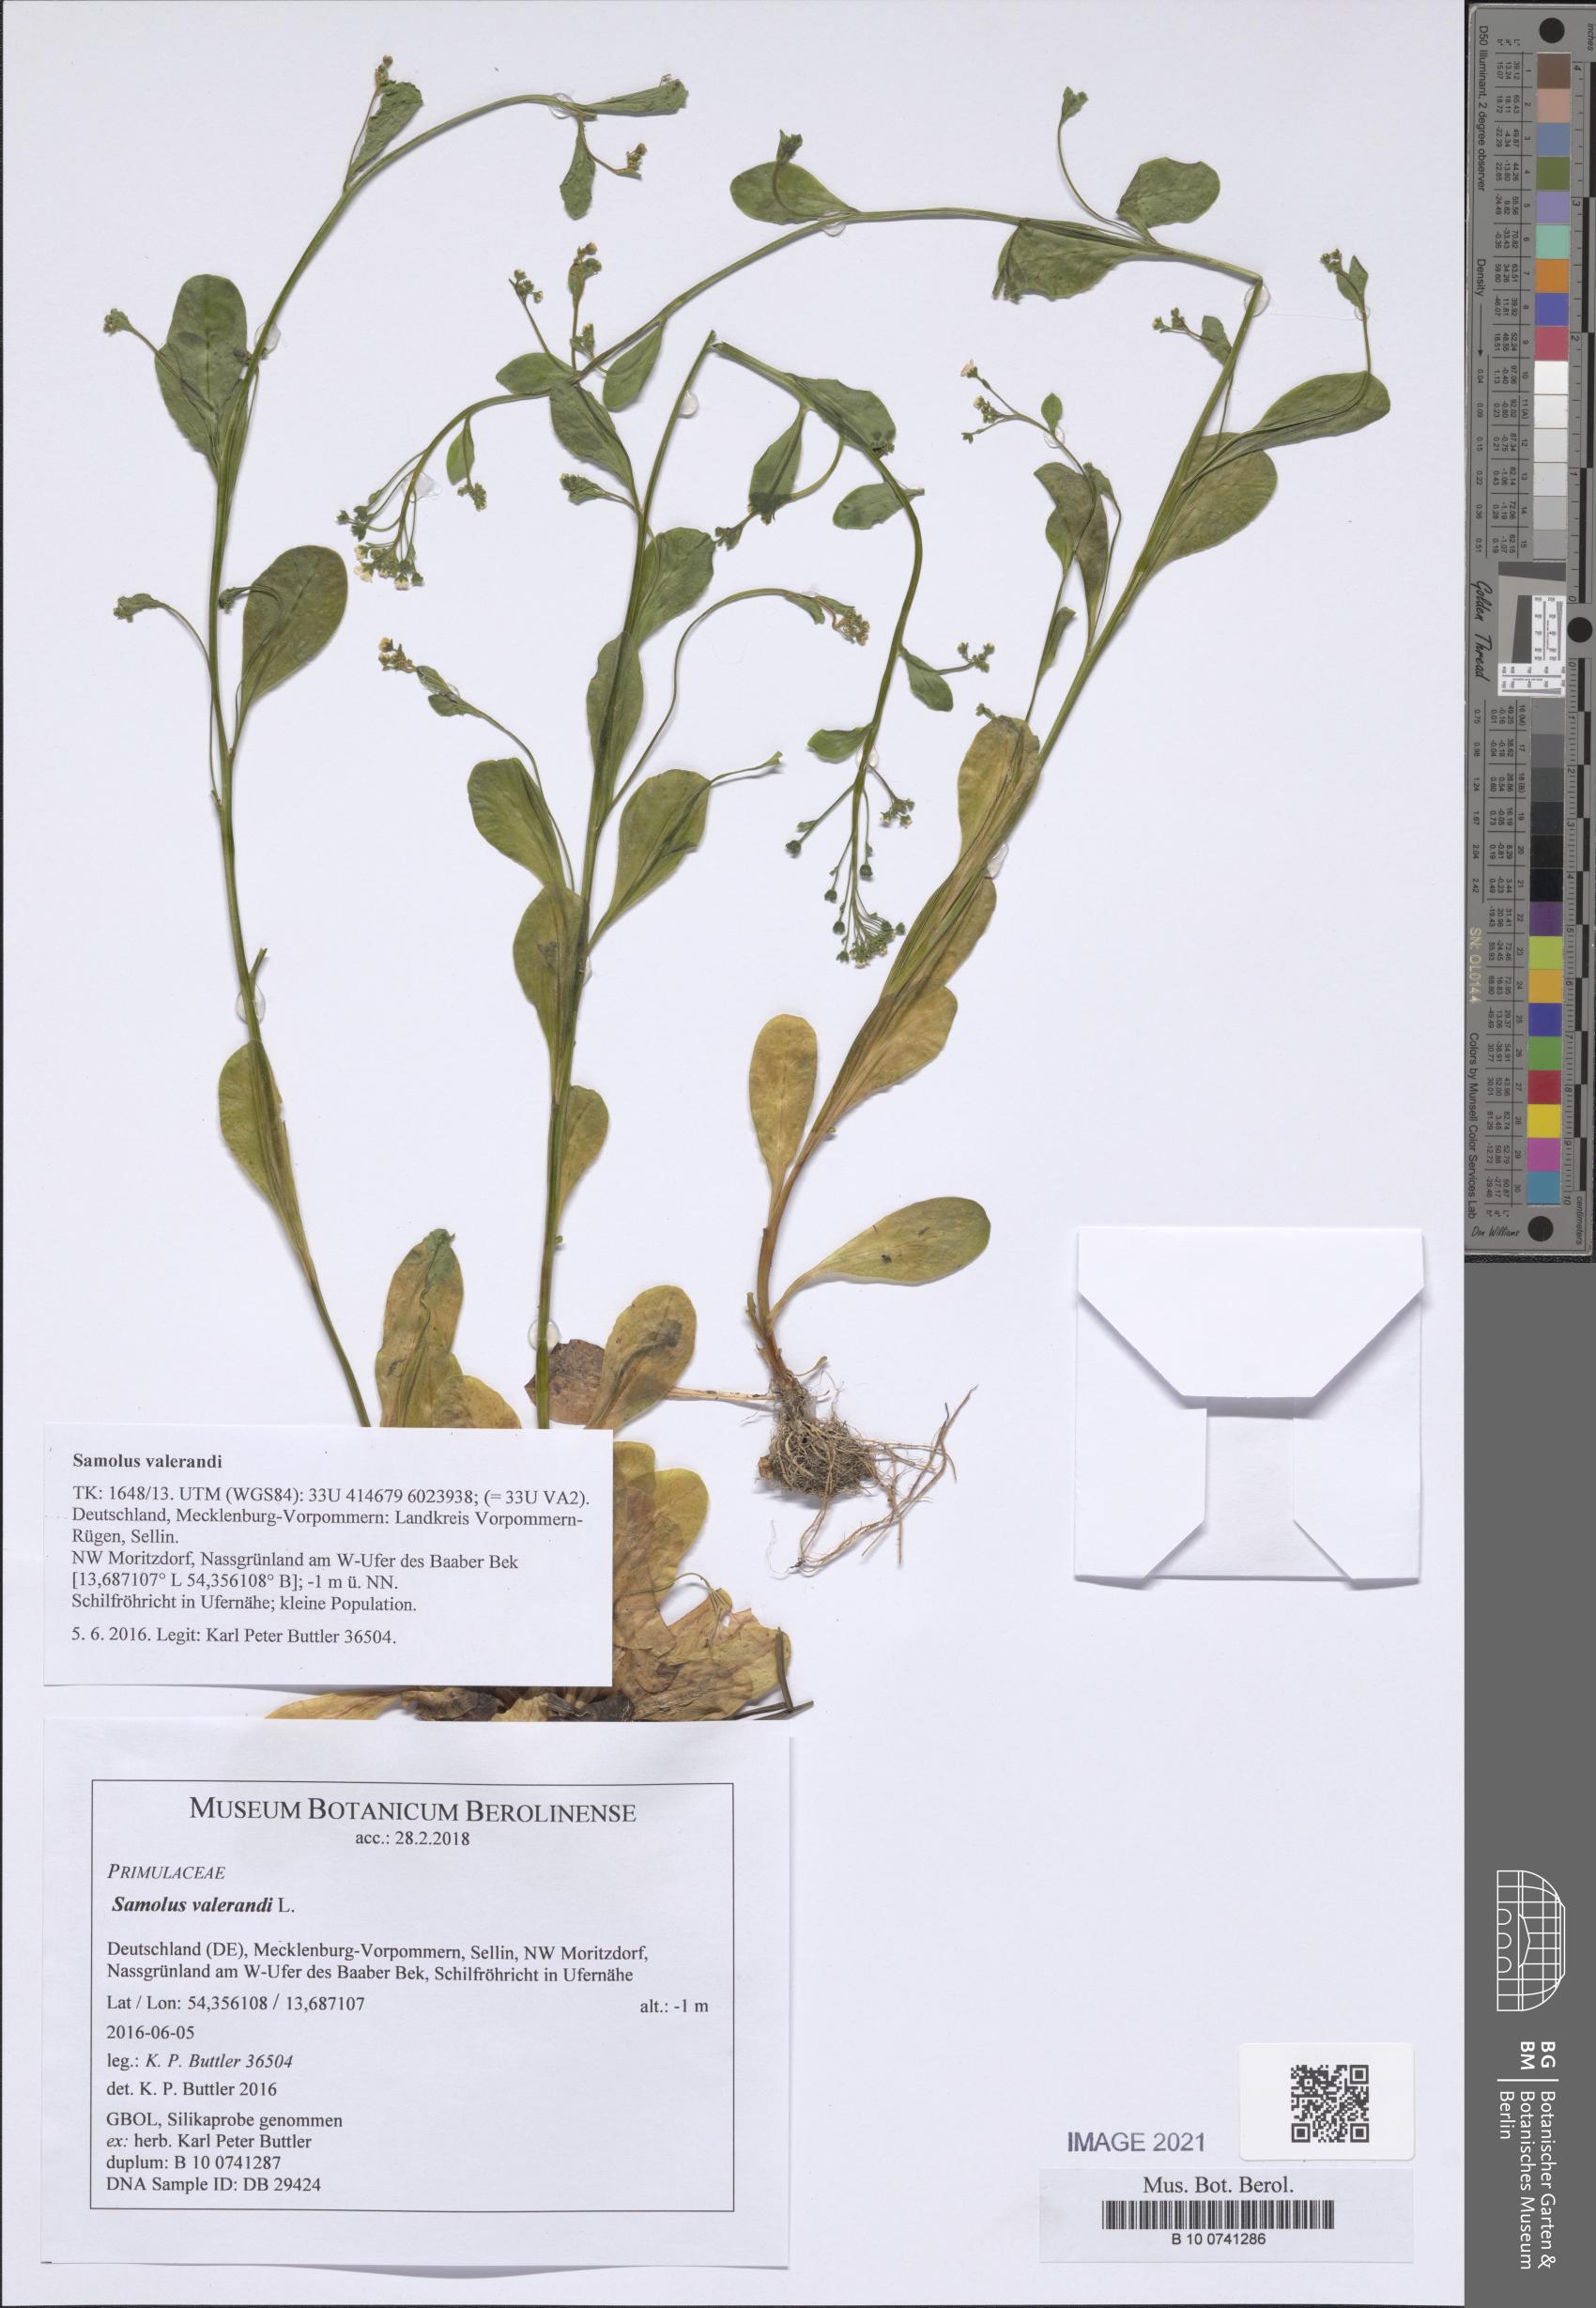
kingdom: Plantae
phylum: Tracheophyta
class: Magnoliopsida
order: Ericales
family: Primulaceae
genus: Samolus
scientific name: Samolus valerandi
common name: Brookweed
